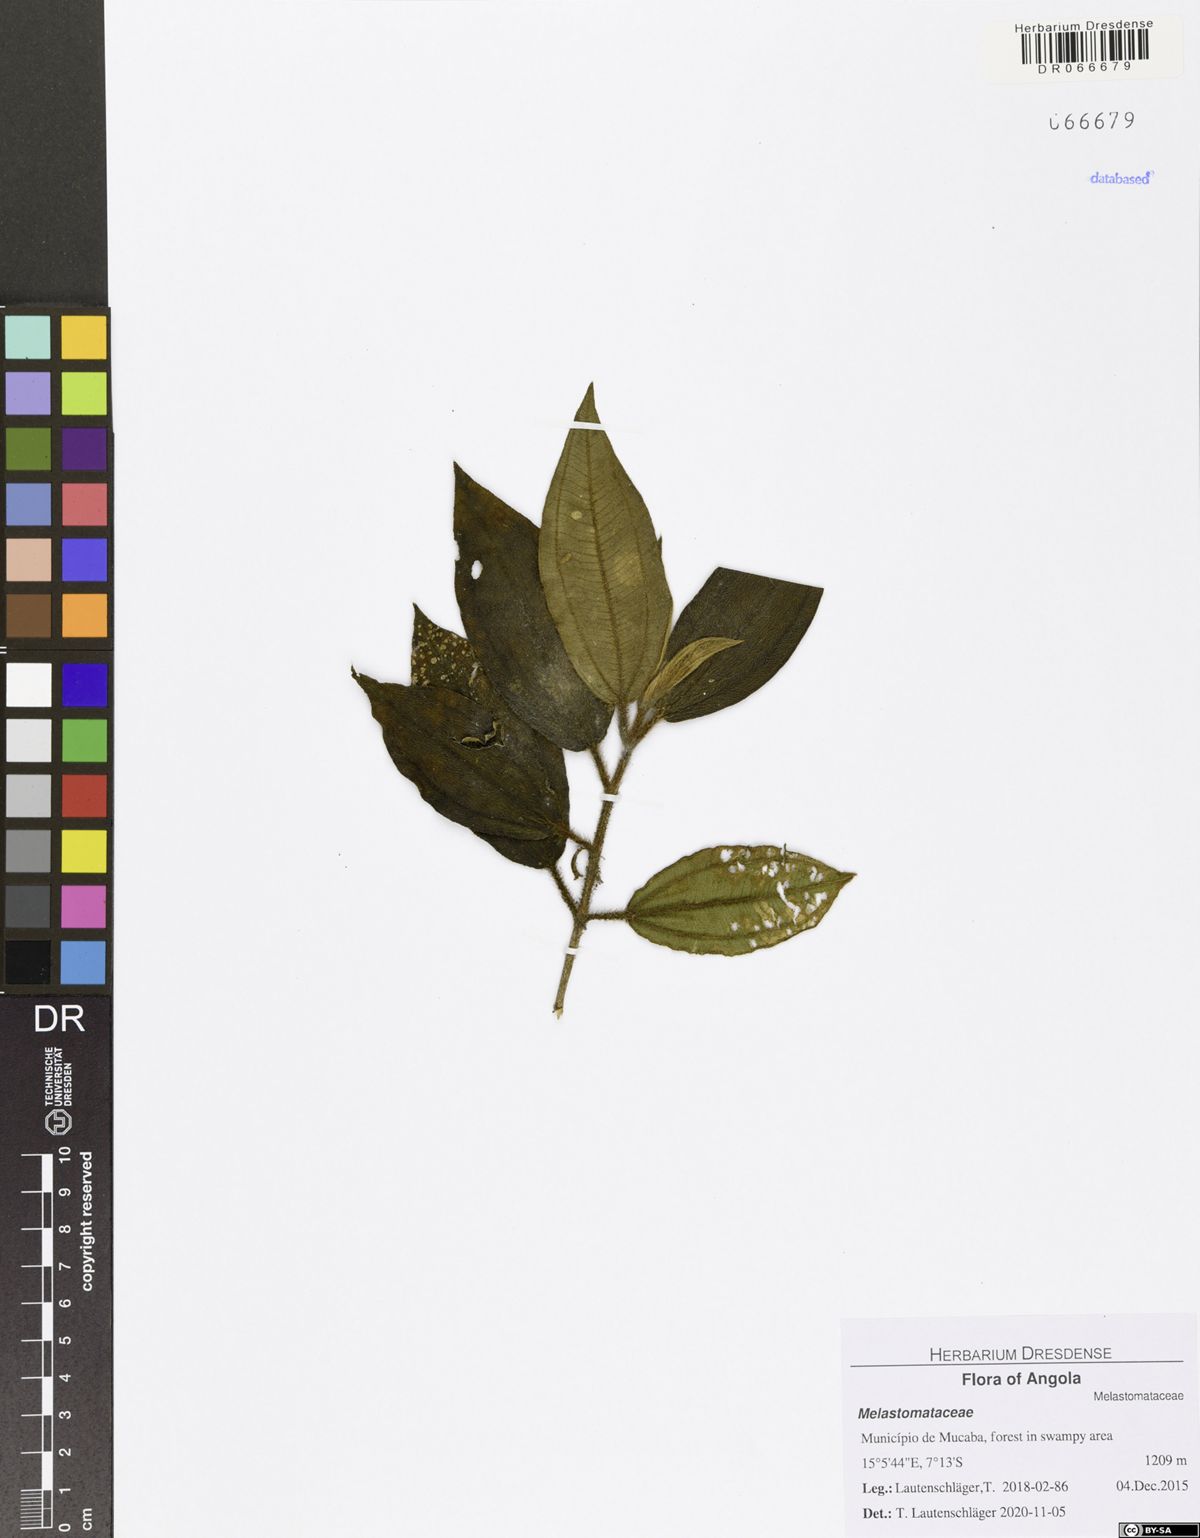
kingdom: Plantae
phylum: Tracheophyta
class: Magnoliopsida
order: Myrtales
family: Melastomataceae
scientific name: Melastomataceae
